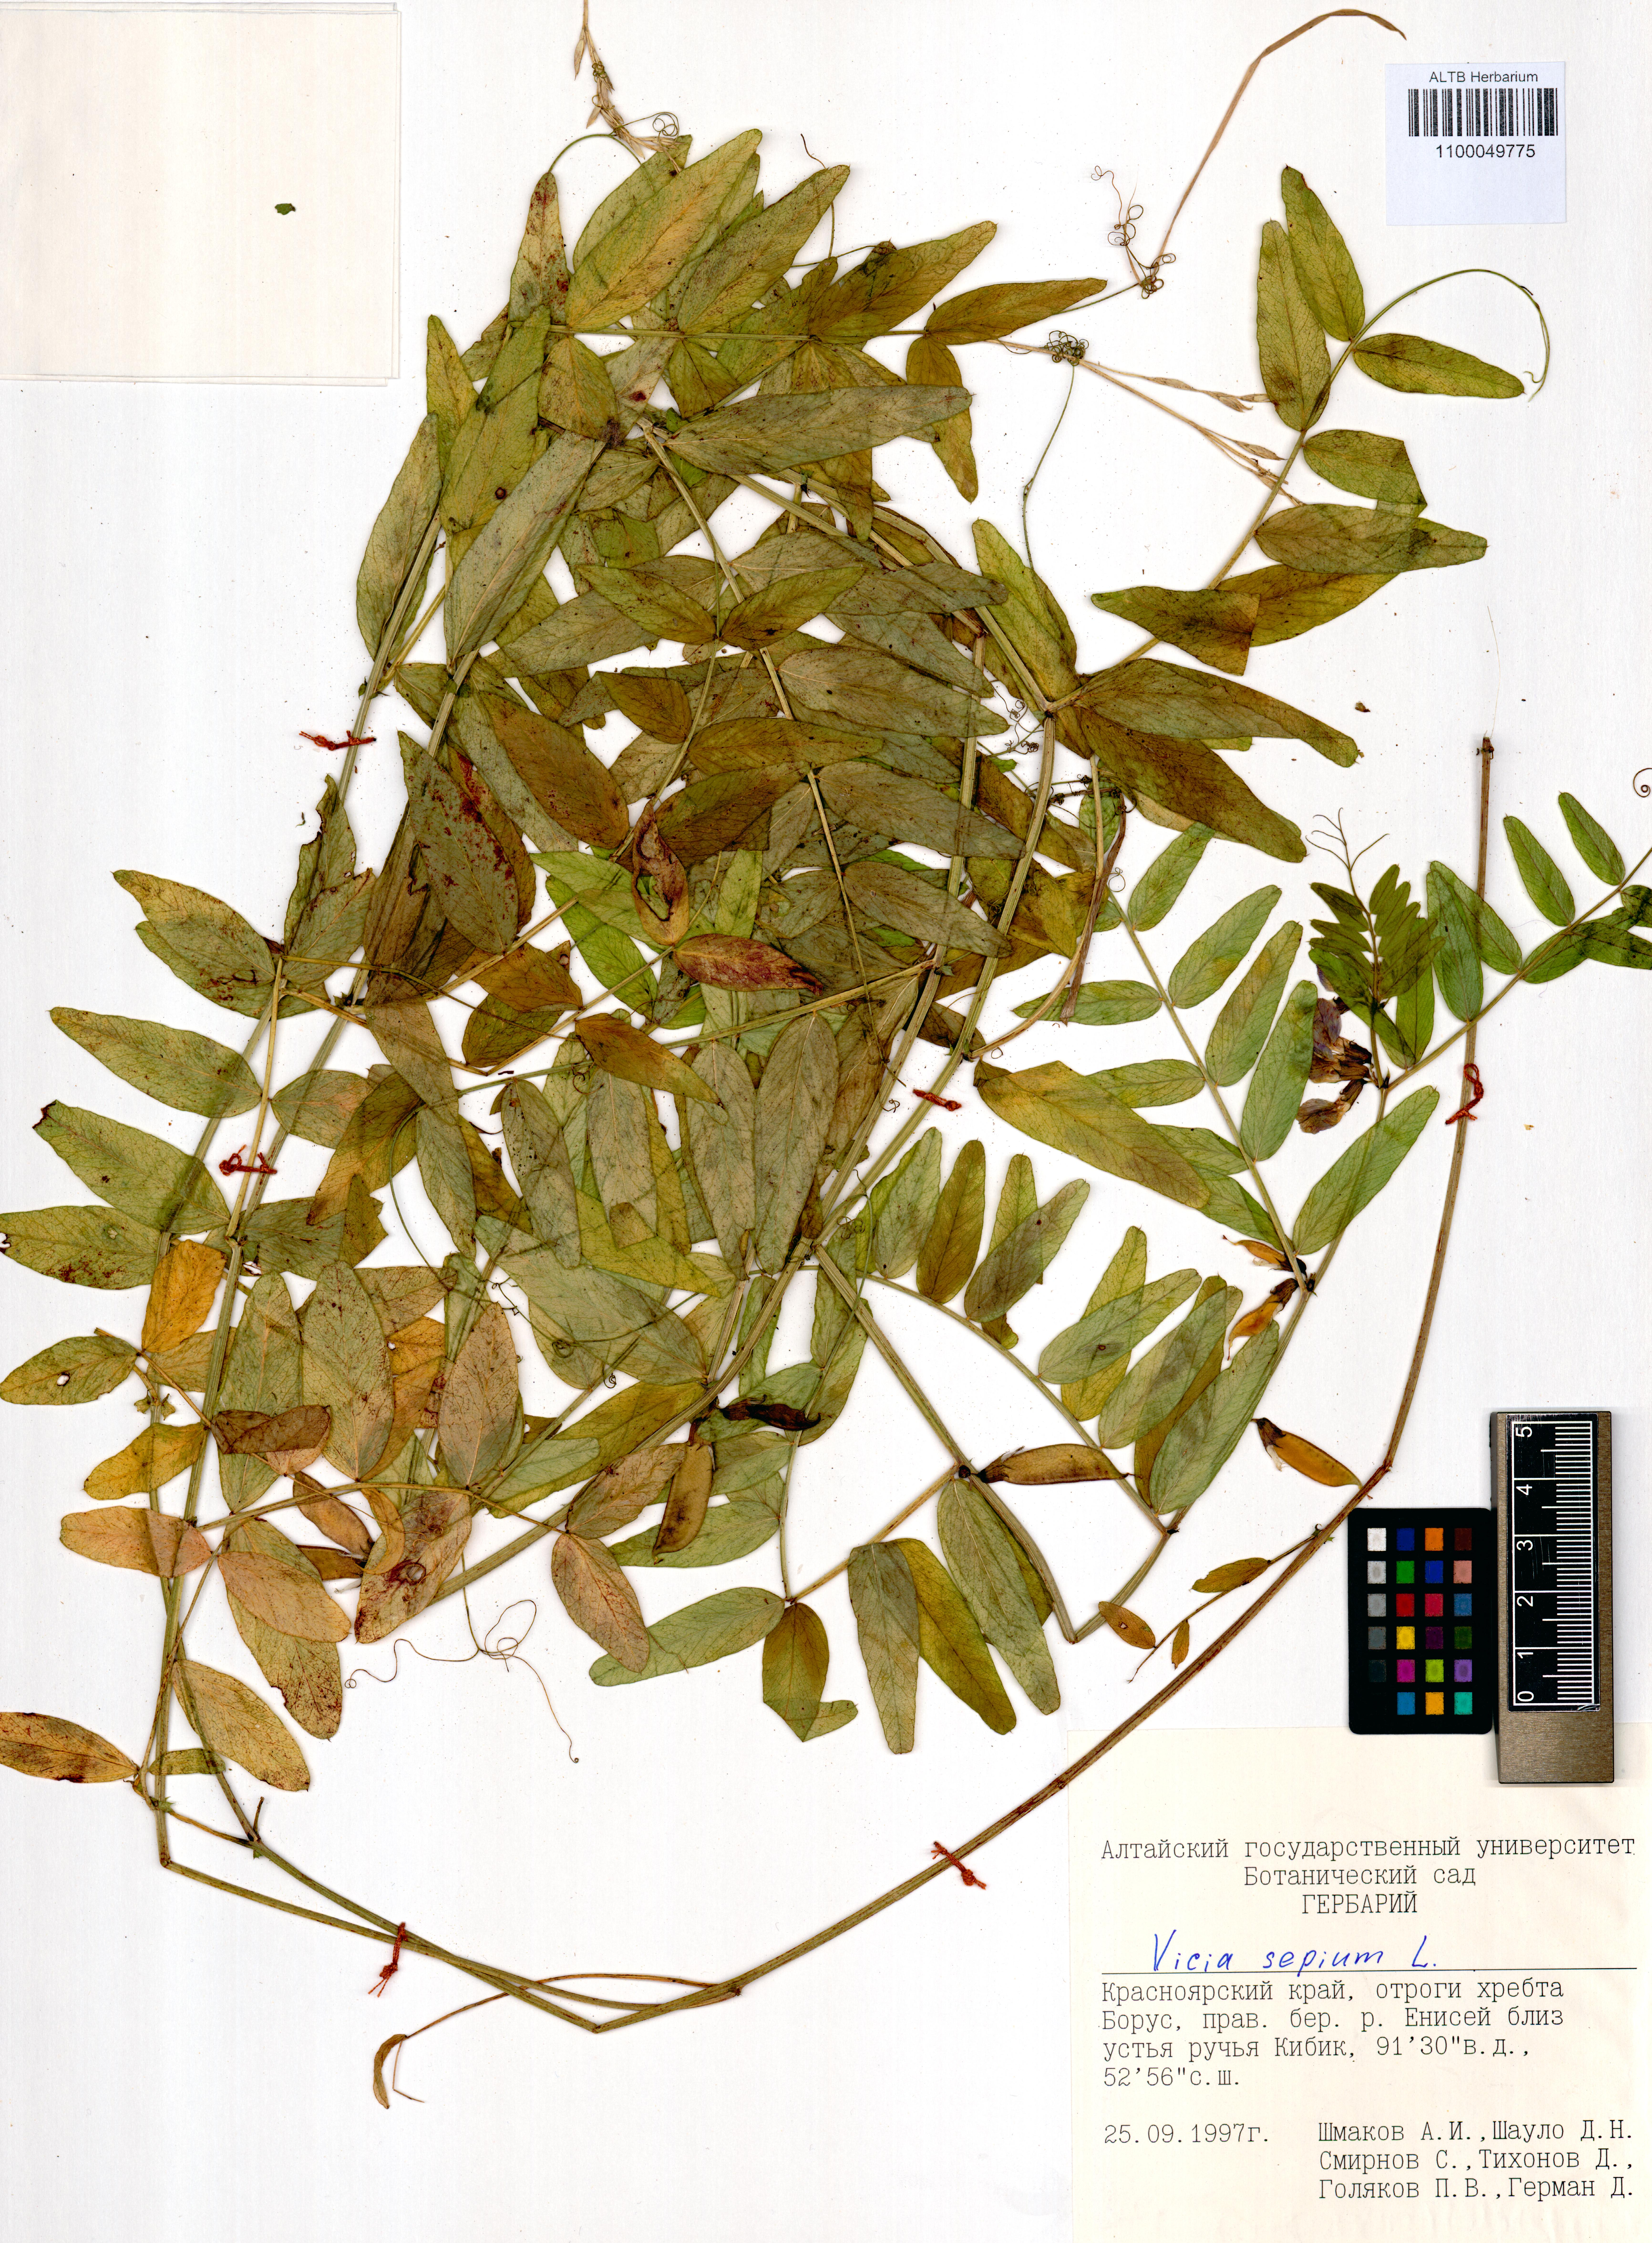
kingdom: Plantae
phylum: Tracheophyta
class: Magnoliopsida
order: Fabales
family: Fabaceae
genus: Vicia
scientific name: Vicia sepium
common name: Bush vetch
